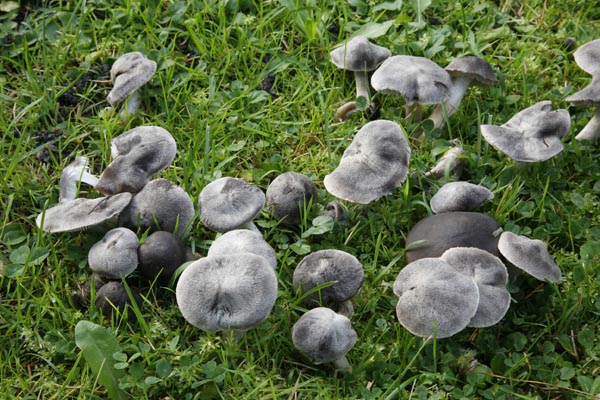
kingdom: Fungi
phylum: Basidiomycota
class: Agaricomycetes
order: Agaricales
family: Tricholomataceae
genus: Tricholoma
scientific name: Tricholoma terreum
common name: jordfarvet ridderhat
